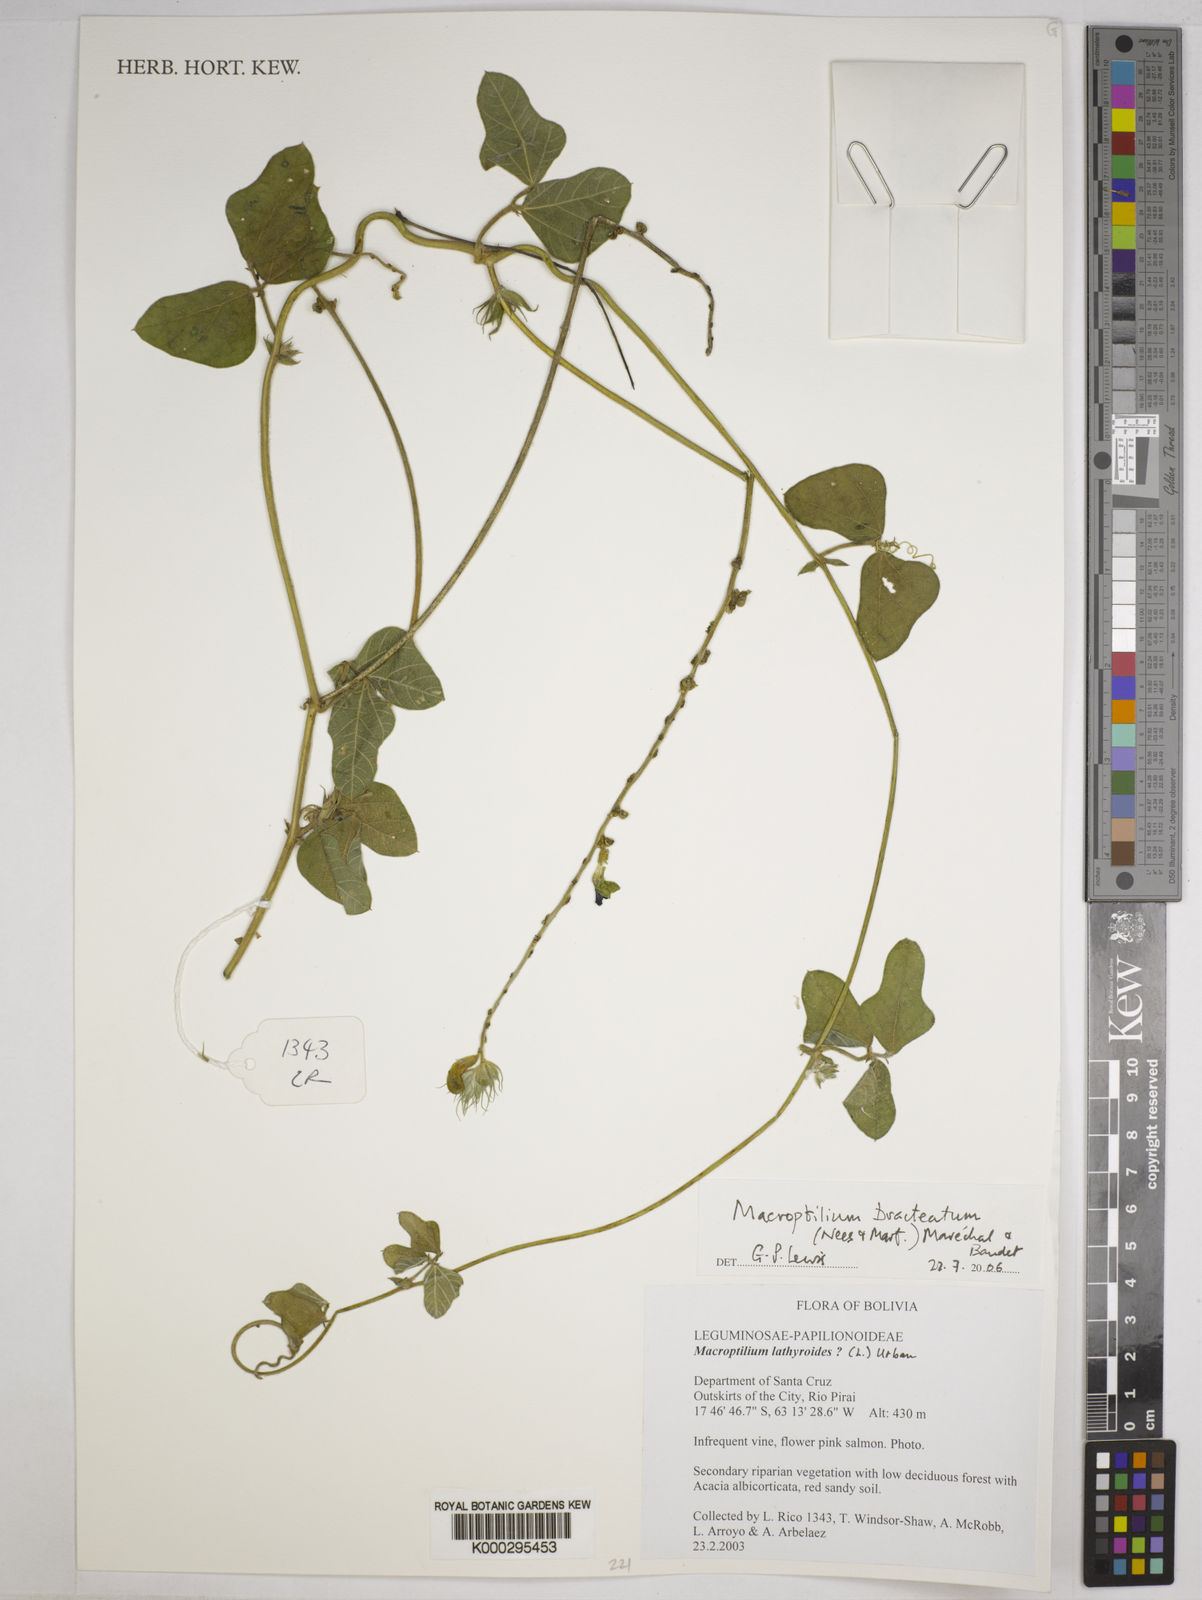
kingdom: Plantae
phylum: Tracheophyta
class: Magnoliopsida
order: Fabales
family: Fabaceae
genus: Macroptilium
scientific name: Macroptilium
